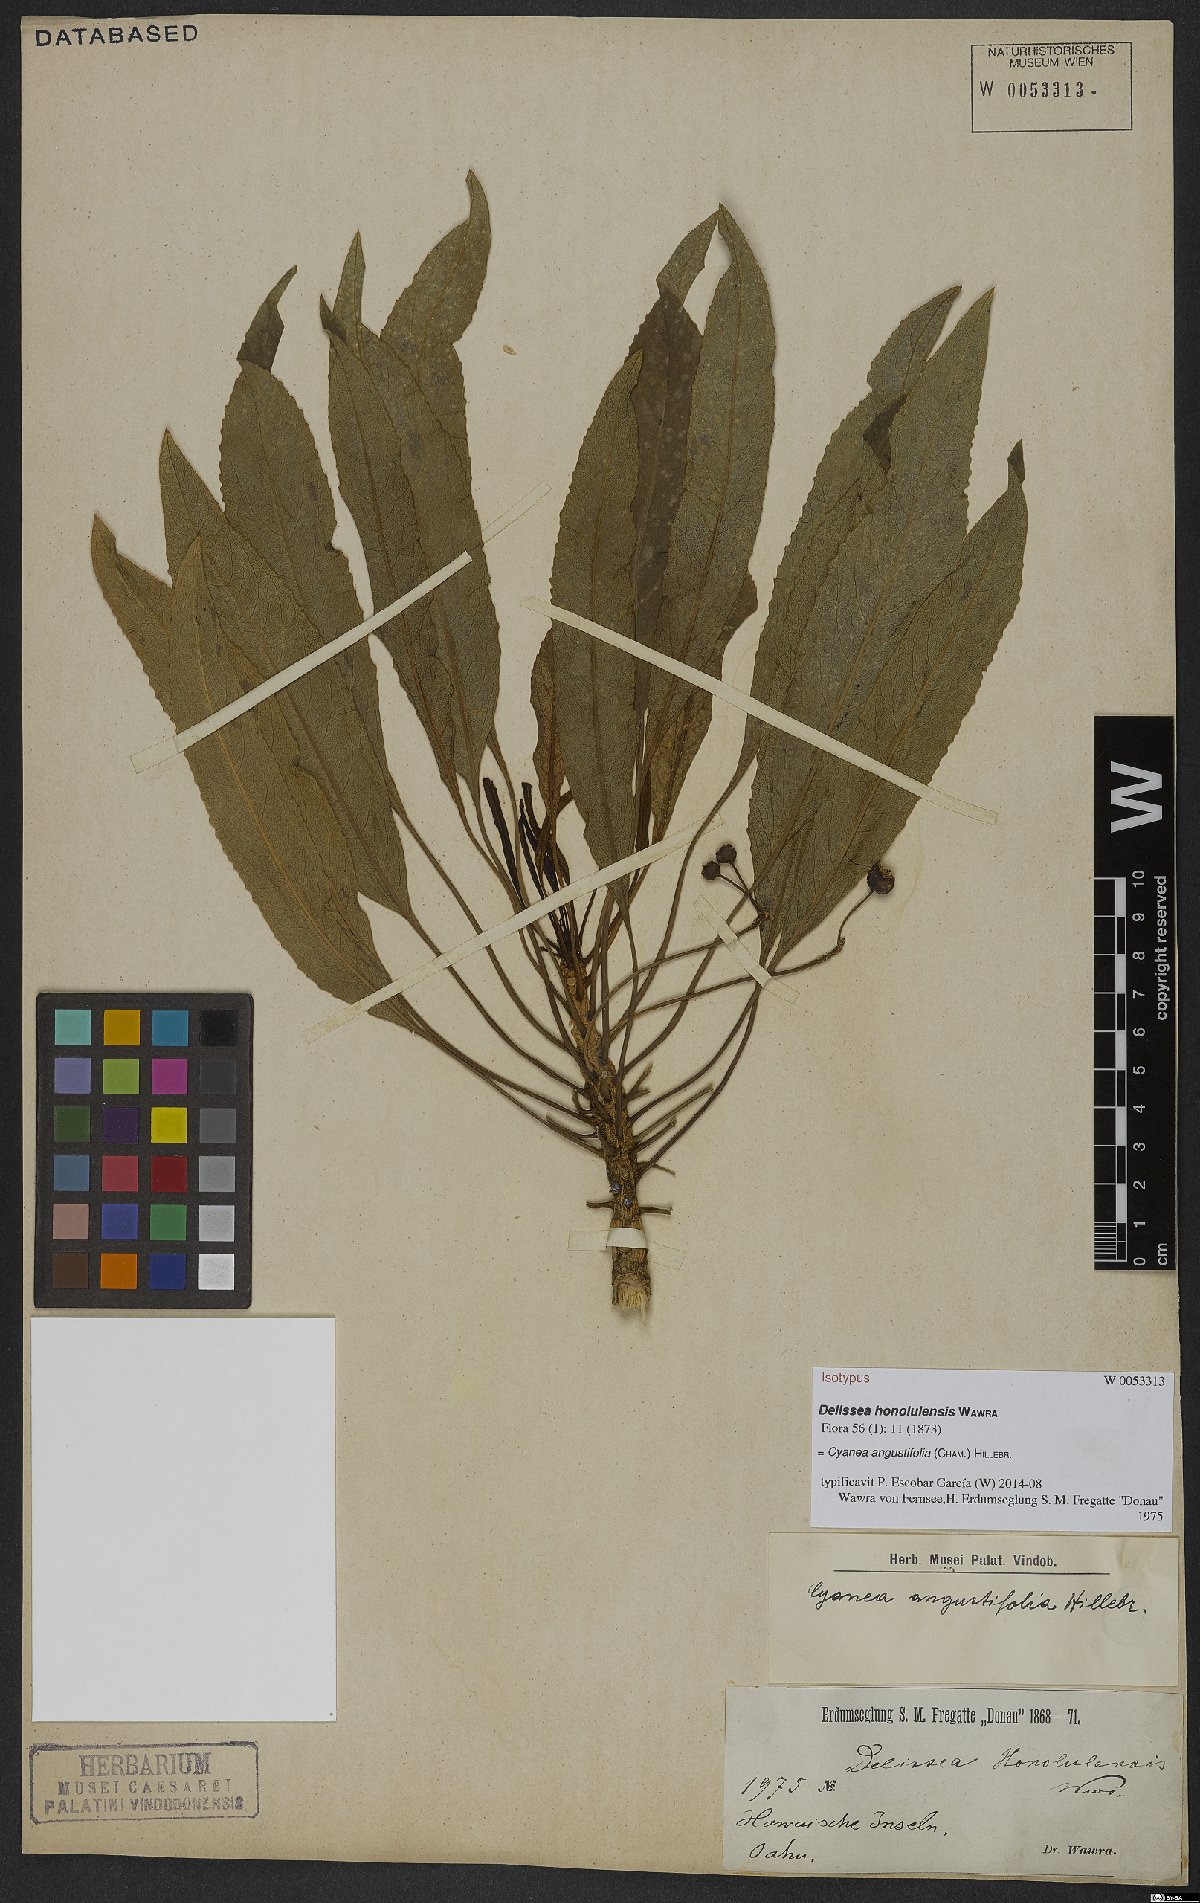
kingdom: Plantae
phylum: Tracheophyta
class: Magnoliopsida
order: Asterales
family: Campanulaceae
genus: Cyanea
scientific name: Cyanea angustifolia
